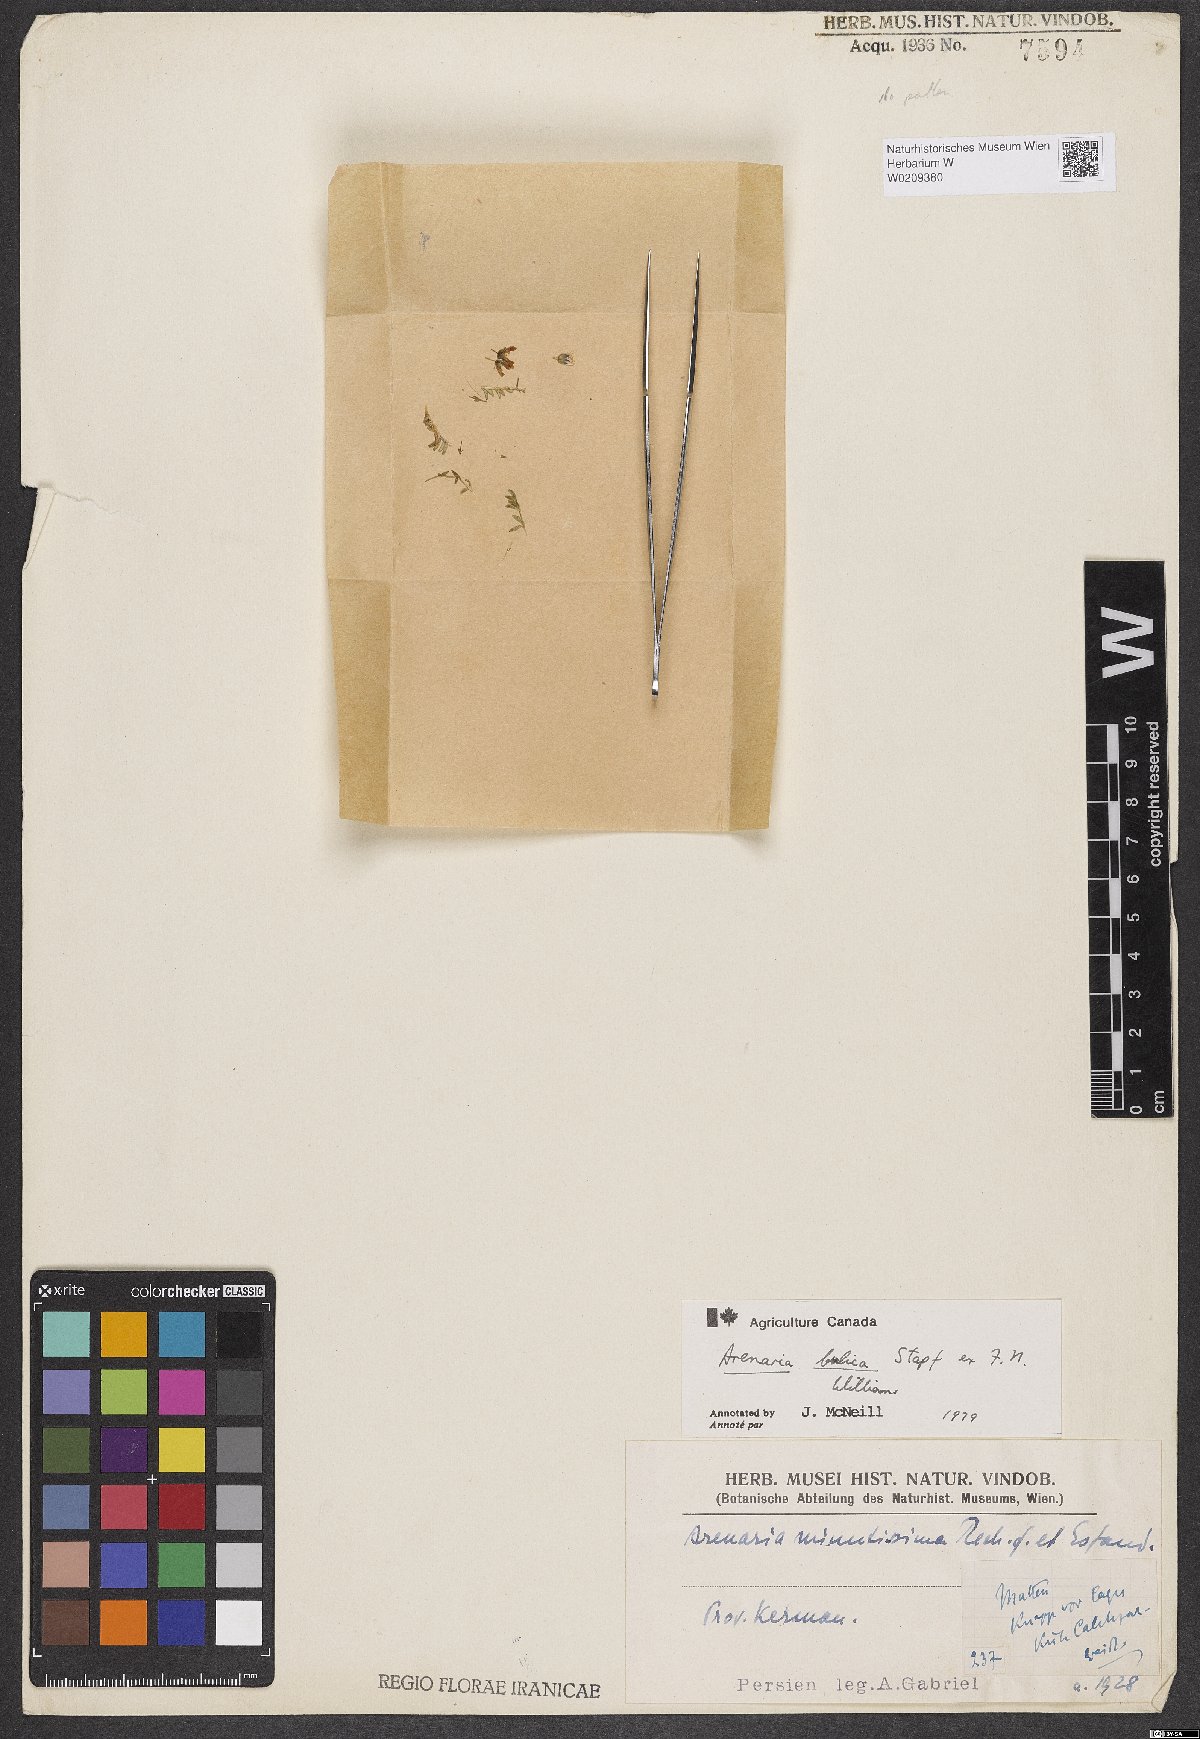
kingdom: Plantae
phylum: Tracheophyta
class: Magnoliopsida
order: Caryophyllales
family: Caryophyllaceae
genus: Arenaria
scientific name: Arenaria bulica
